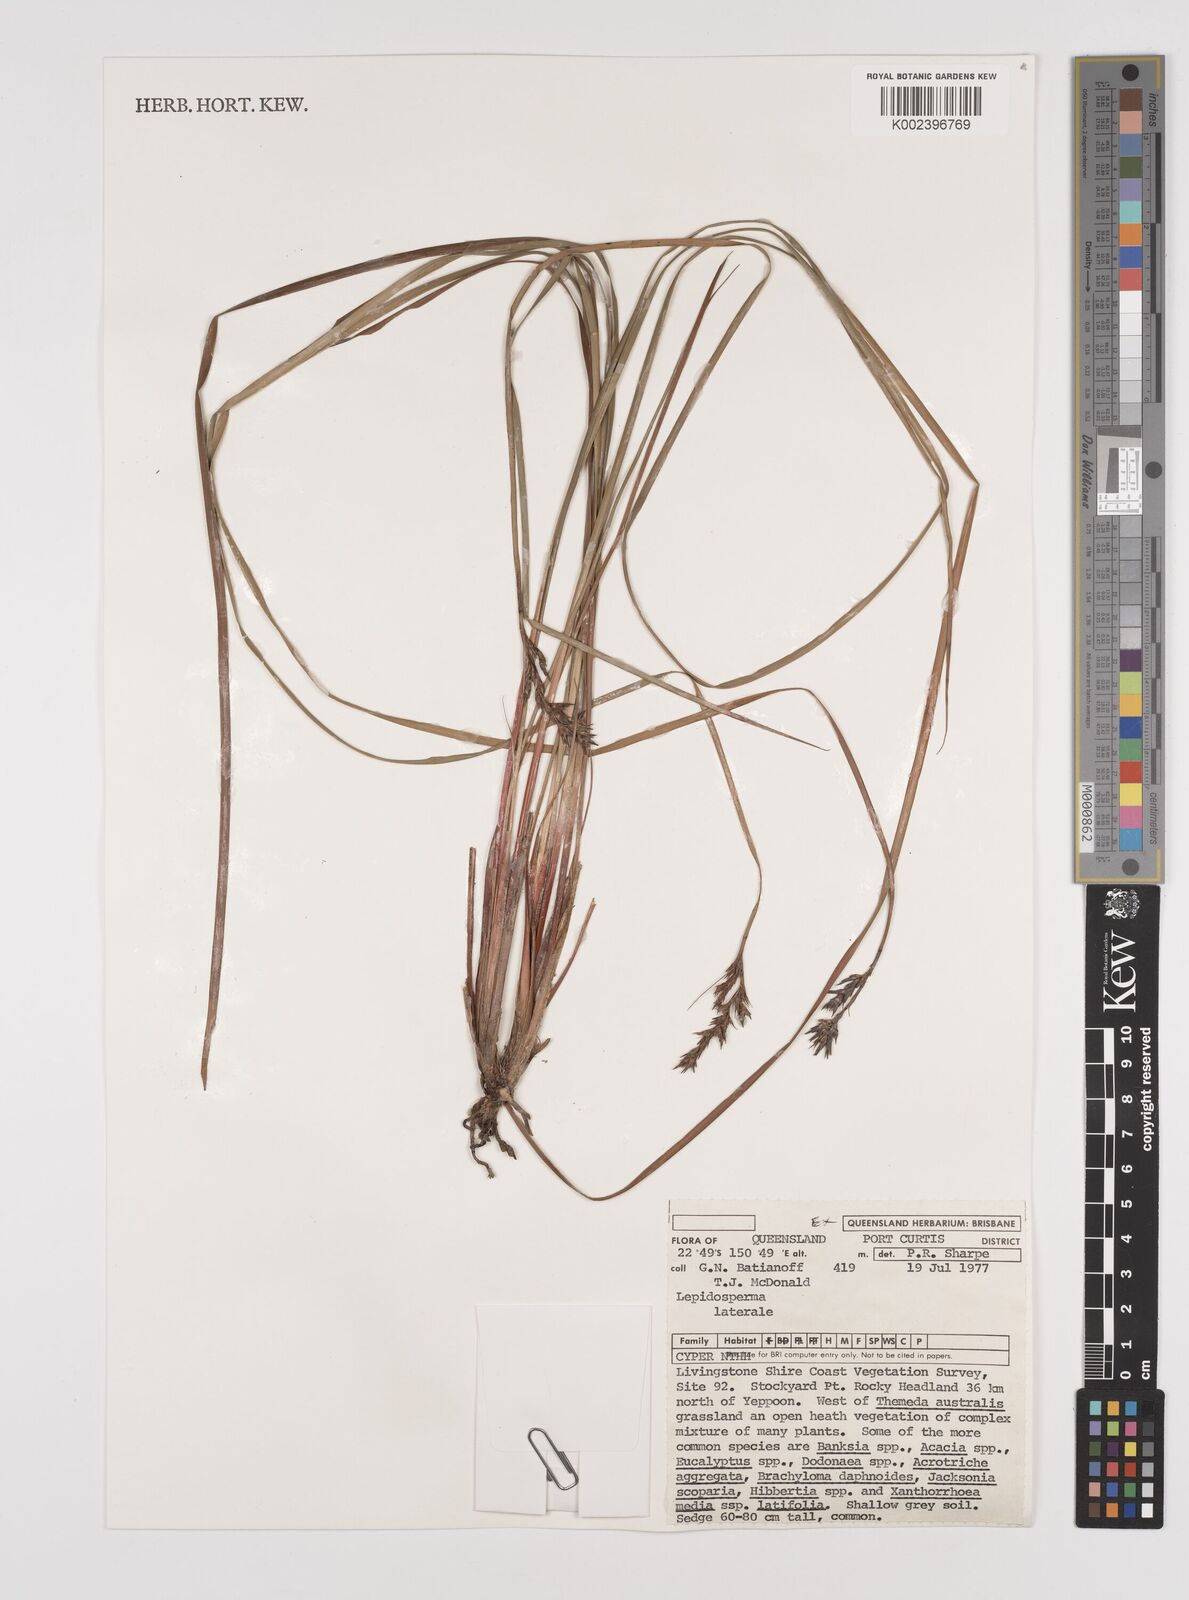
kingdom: Plantae
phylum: Tracheophyta
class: Liliopsida
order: Poales
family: Cyperaceae
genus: Lepidosperma
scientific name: Lepidosperma laterale
